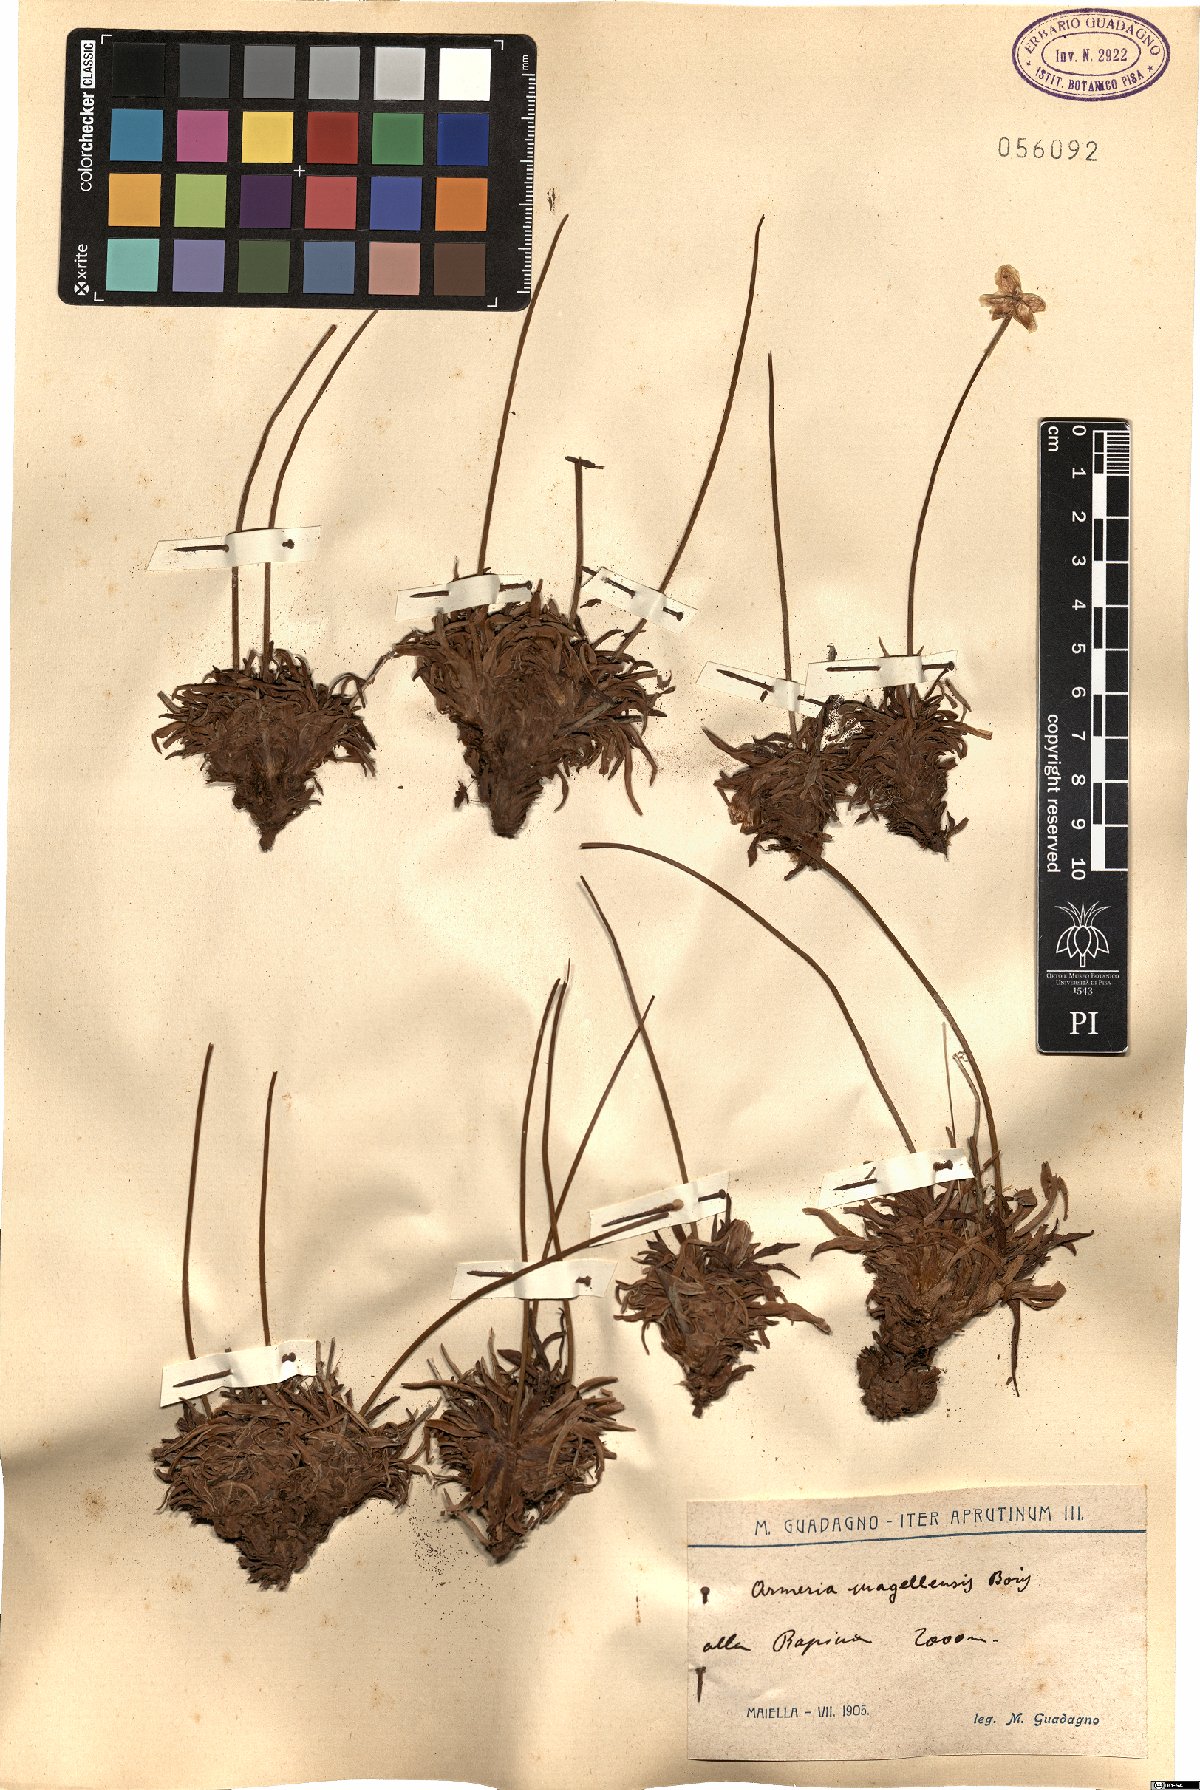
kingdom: Plantae
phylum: Tracheophyta
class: Magnoliopsida
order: Caryophyllales
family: Plumbaginaceae
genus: Armeria
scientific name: Armeria nebrodensis
